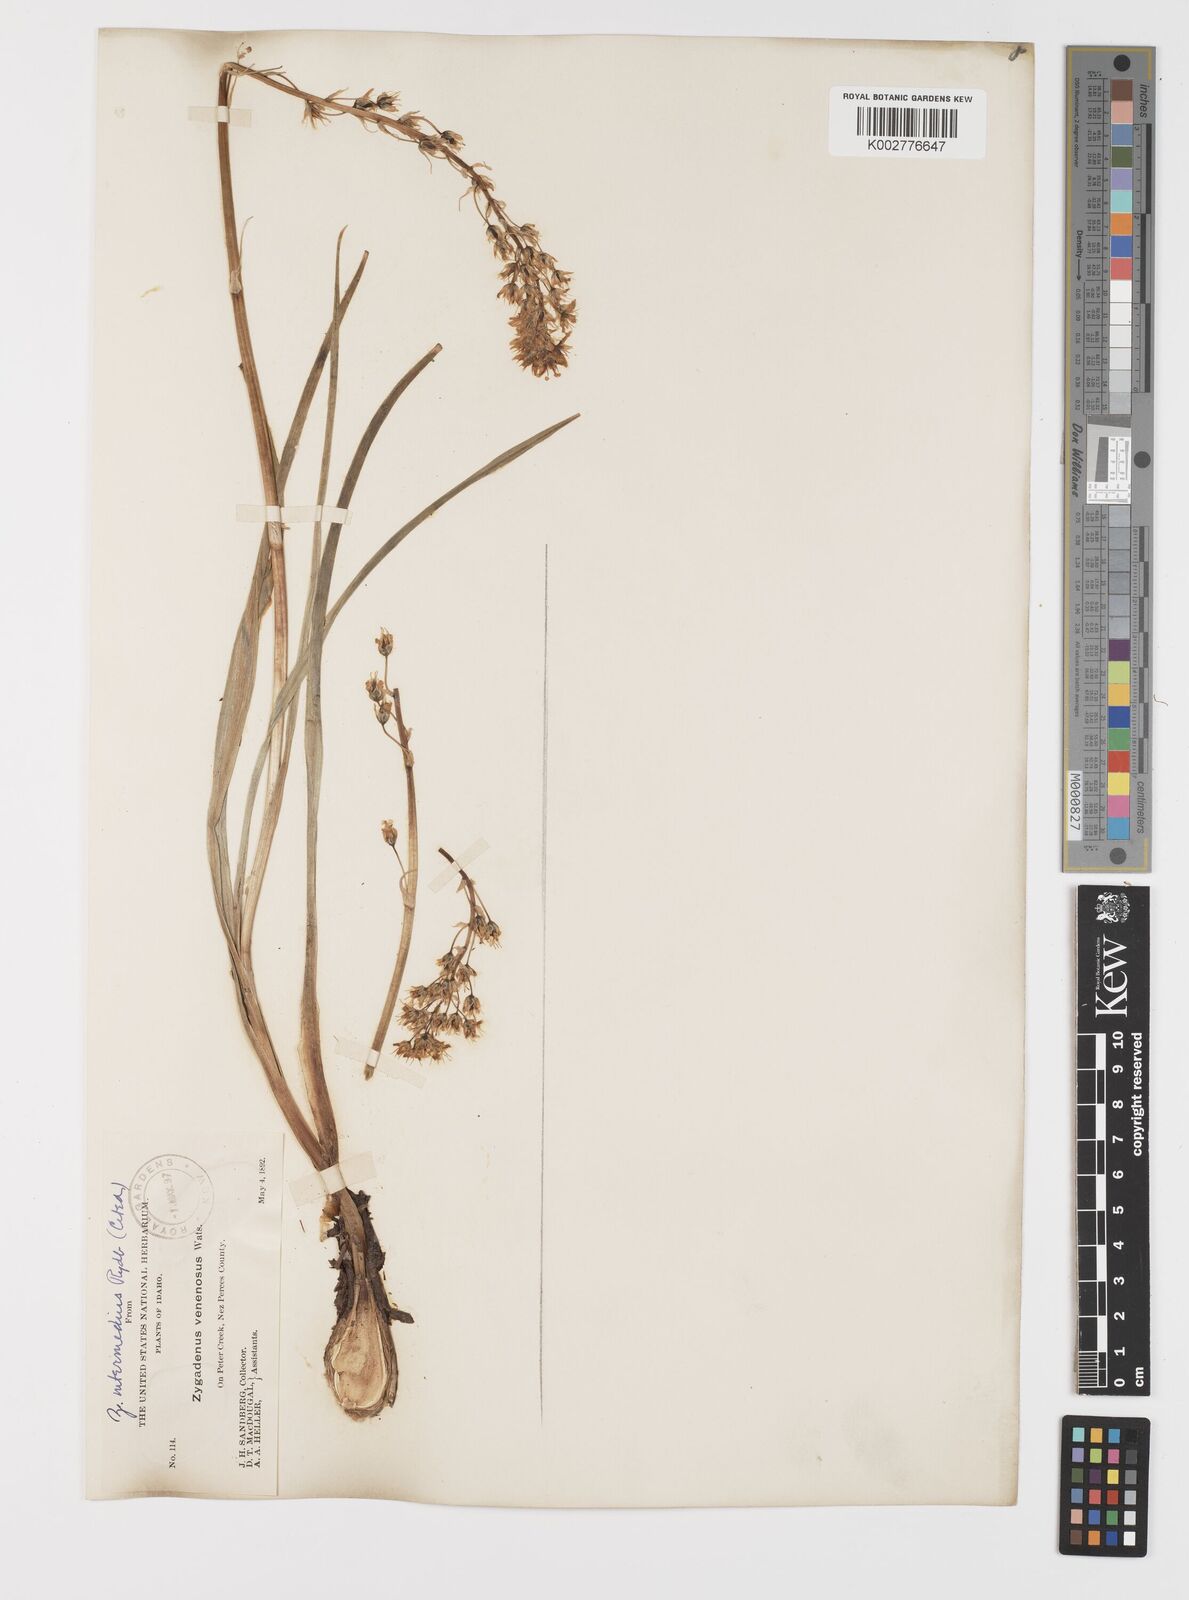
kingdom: Plantae
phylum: Tracheophyta
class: Liliopsida
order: Liliales
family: Melanthiaceae
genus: Toxicoscordion
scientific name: Toxicoscordion venenosum
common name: Meadow death camas
